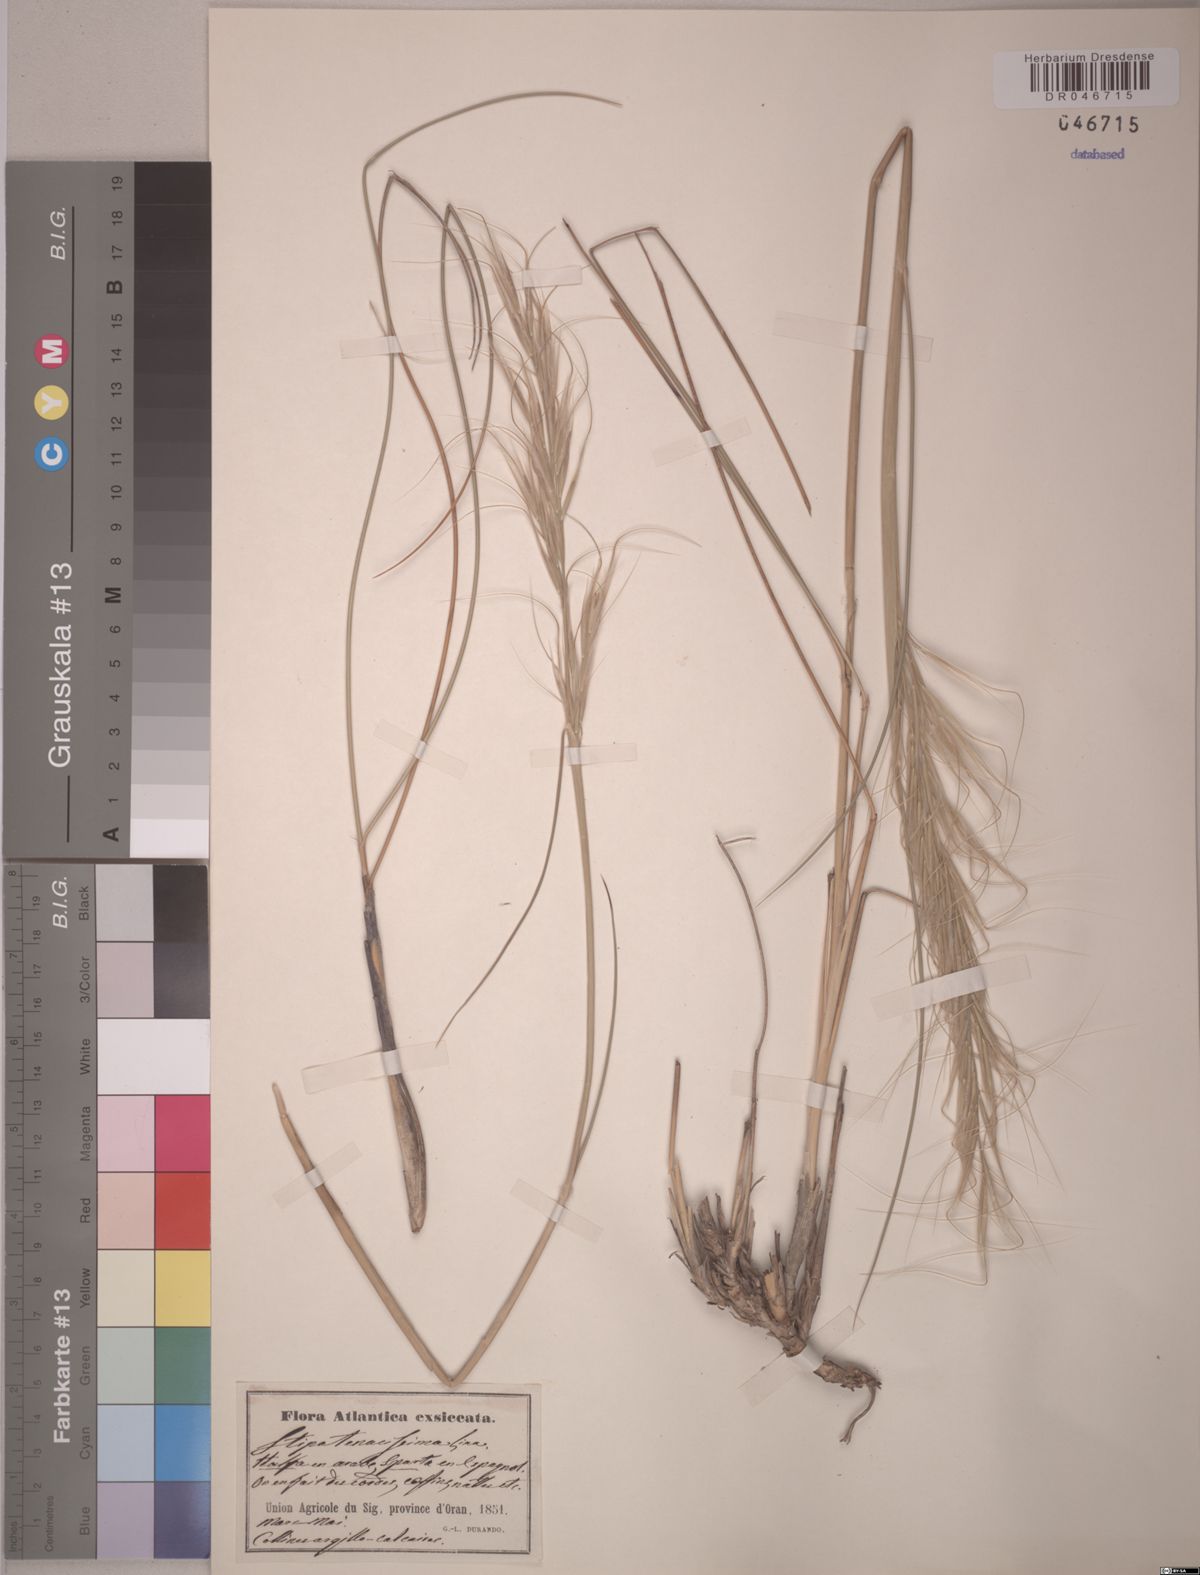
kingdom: Plantae
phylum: Tracheophyta
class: Liliopsida
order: Poales
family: Poaceae
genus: Macrochloa
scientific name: Macrochloa tenacissima
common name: Alfa grass
